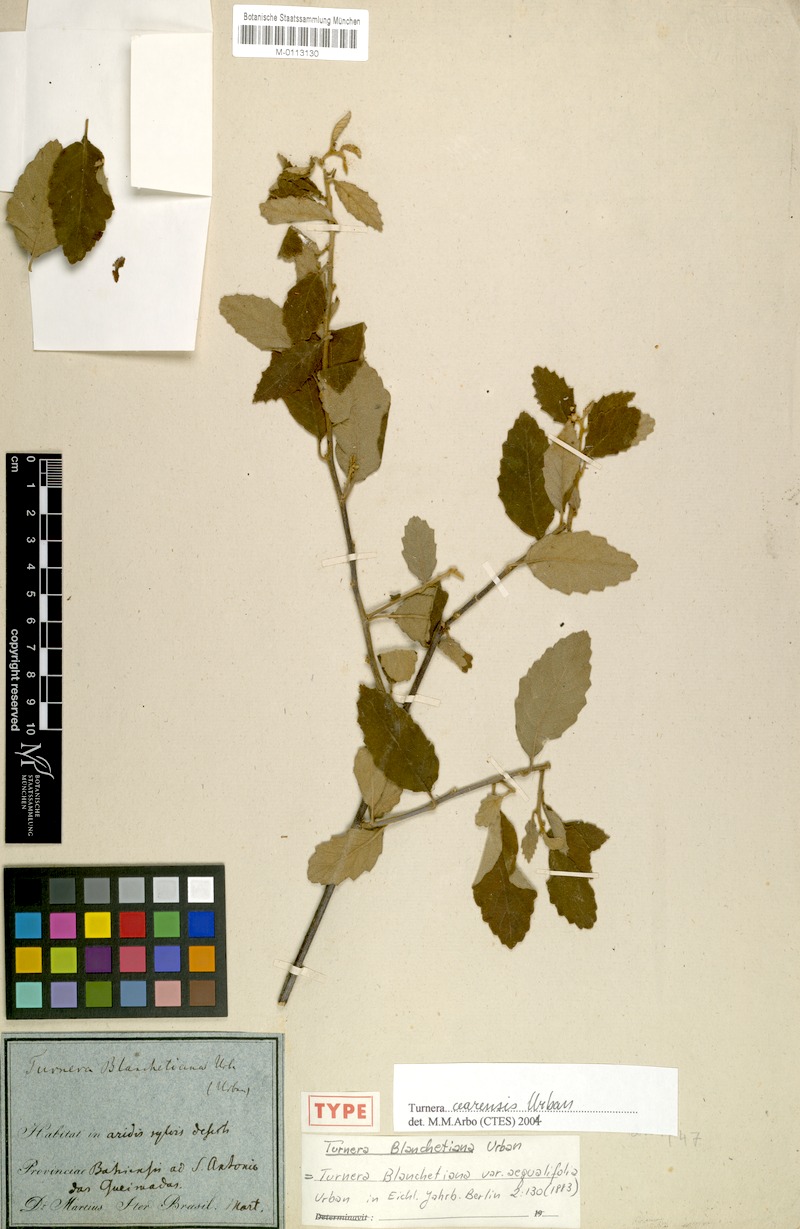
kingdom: Plantae
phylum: Tracheophyta
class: Magnoliopsida
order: Malpighiales
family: Turneraceae
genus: Turnera
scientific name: Turnera cearensis
